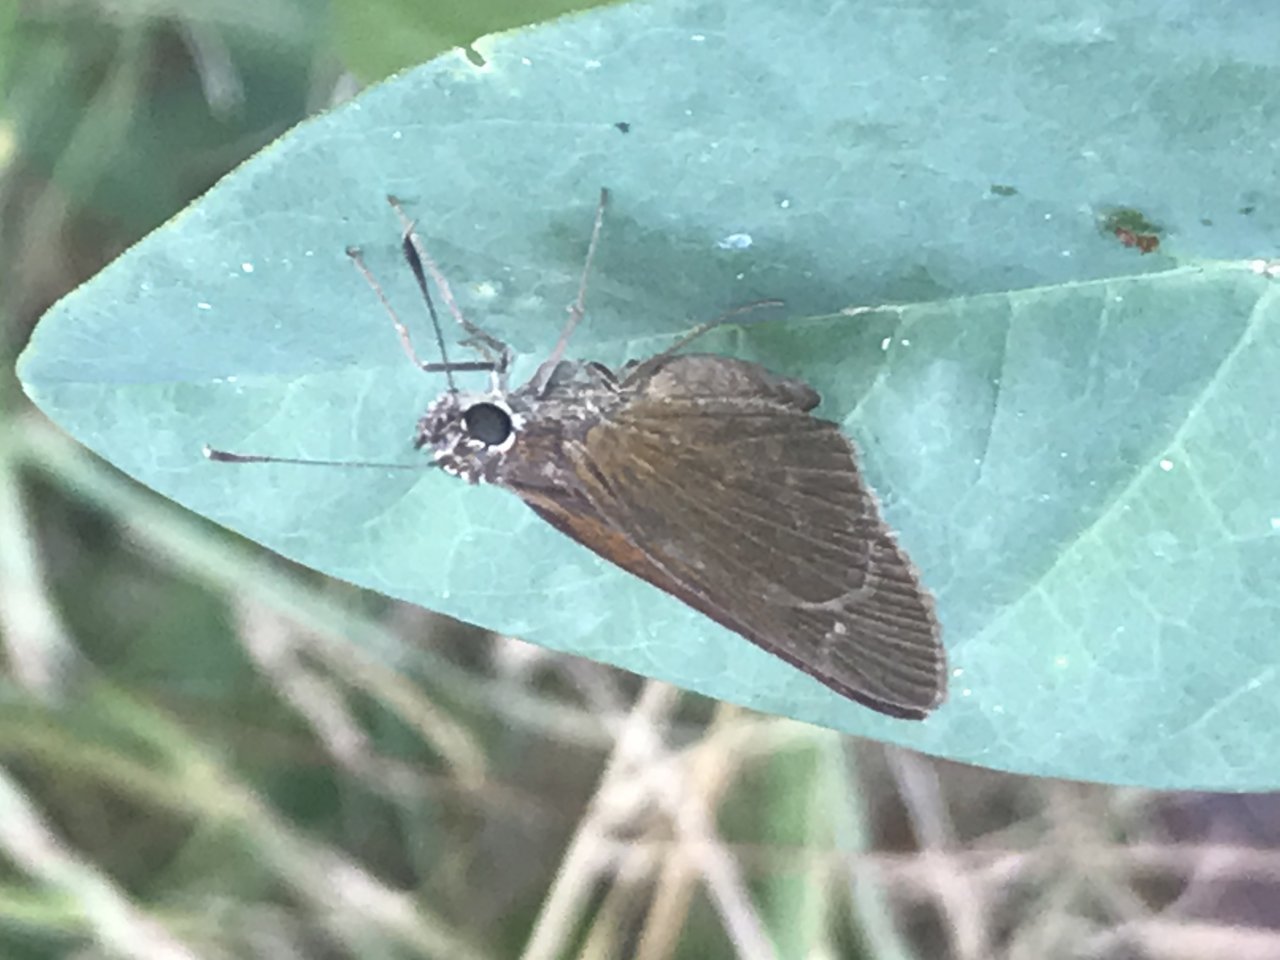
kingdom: Animalia
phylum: Arthropoda
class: Insecta
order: Lepidoptera
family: Hesperiidae
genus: Cymaenes
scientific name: Cymaenes tripunctus
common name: Three-spotted Skipper
